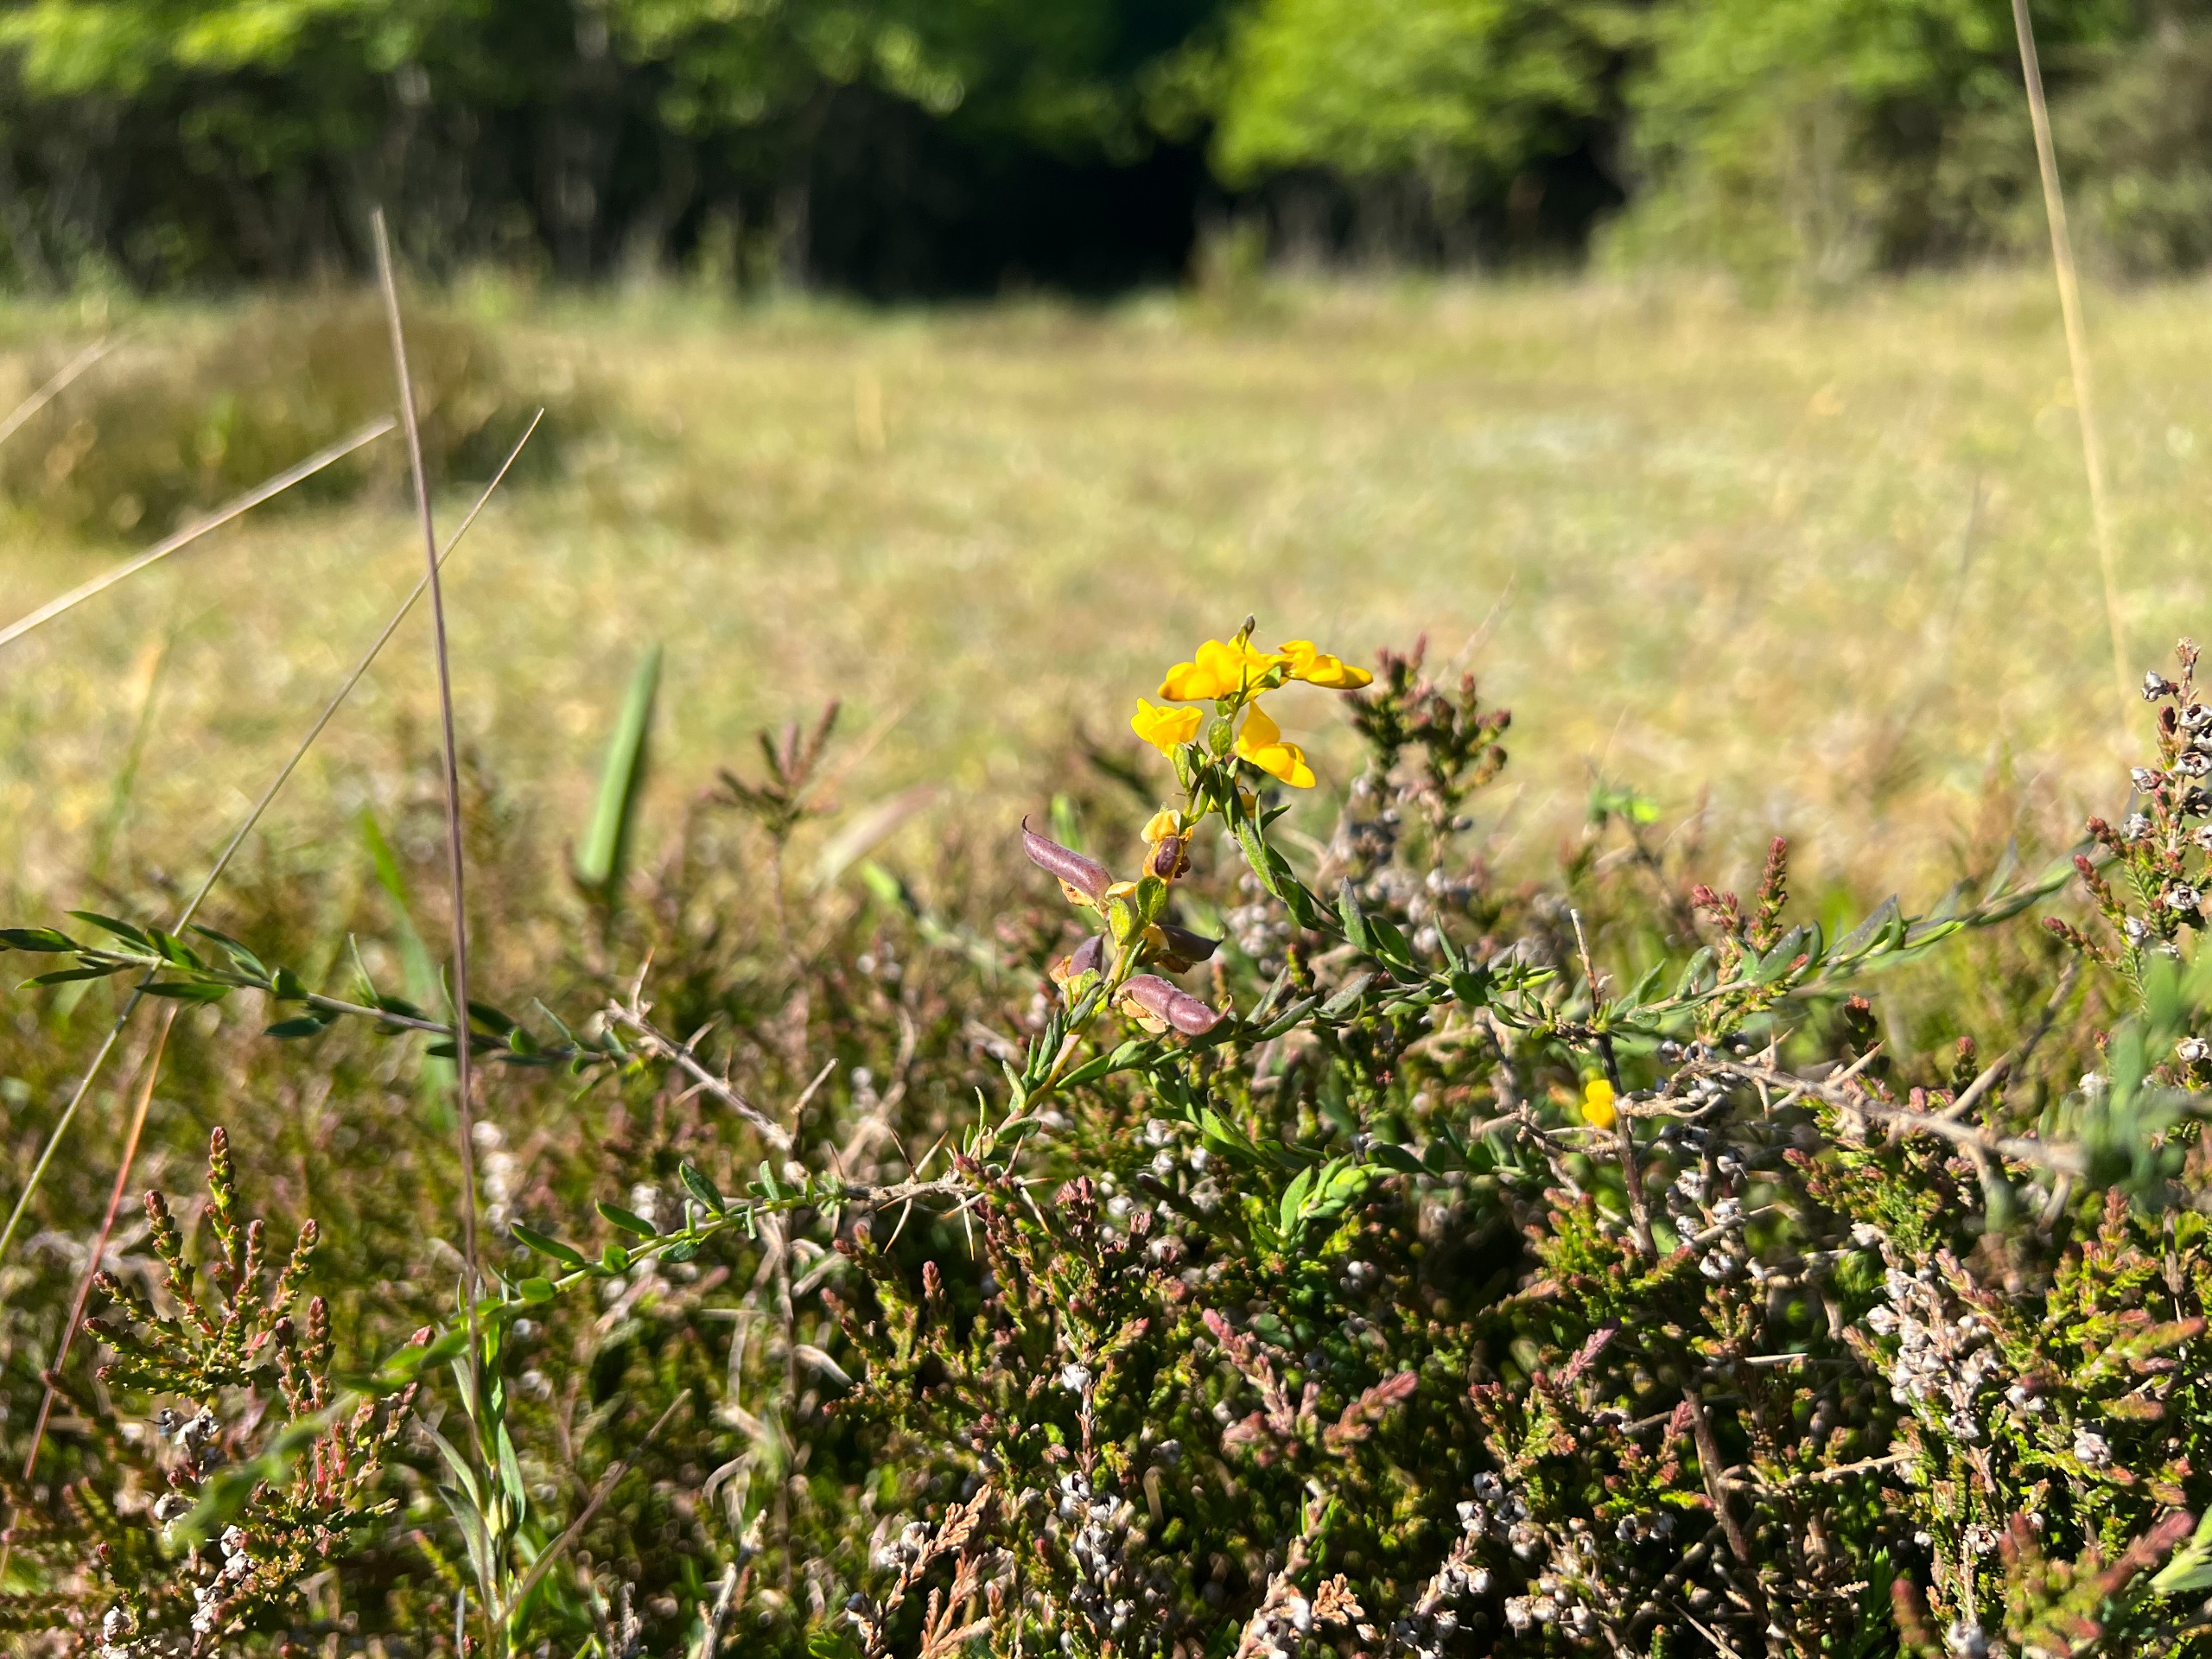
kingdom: Plantae
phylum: Tracheophyta
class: Magnoliopsida
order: Fabales
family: Fabaceae
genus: Genista
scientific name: Genista anglica
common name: Engelsk visse
